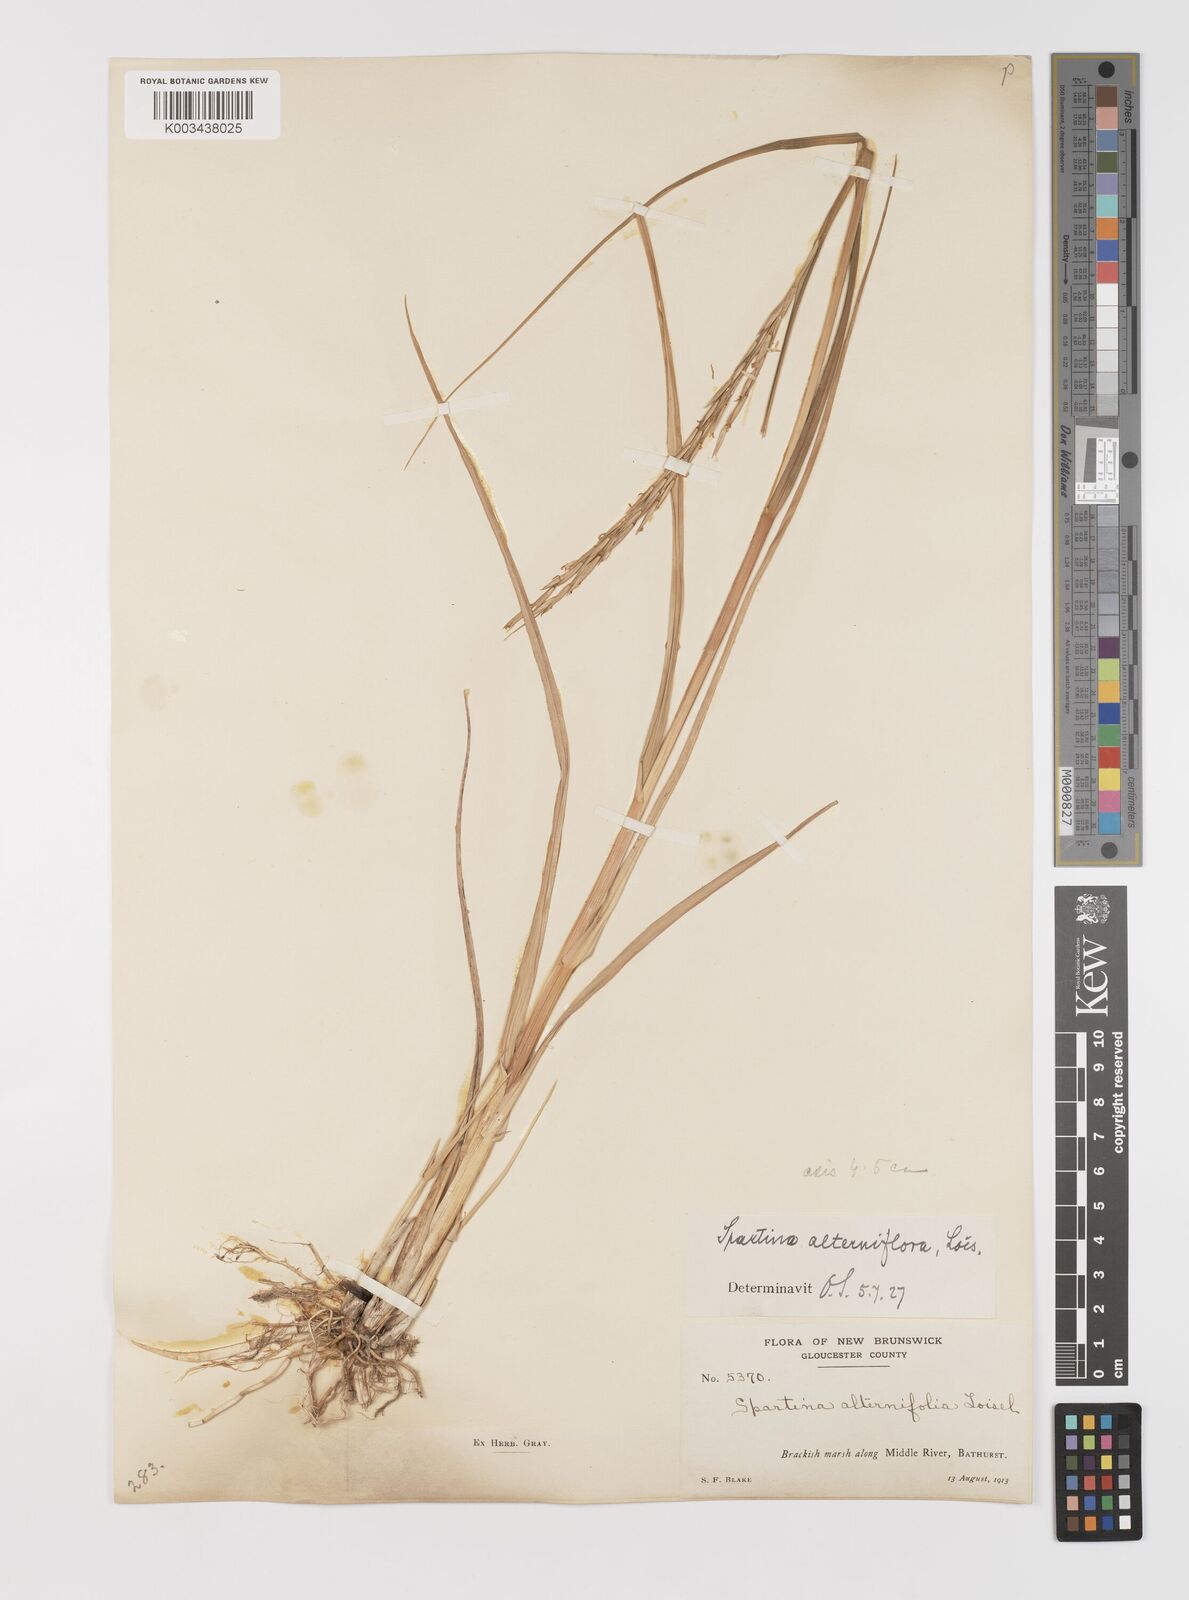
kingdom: Animalia
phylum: Mollusca
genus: Spartina
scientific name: Spartina
